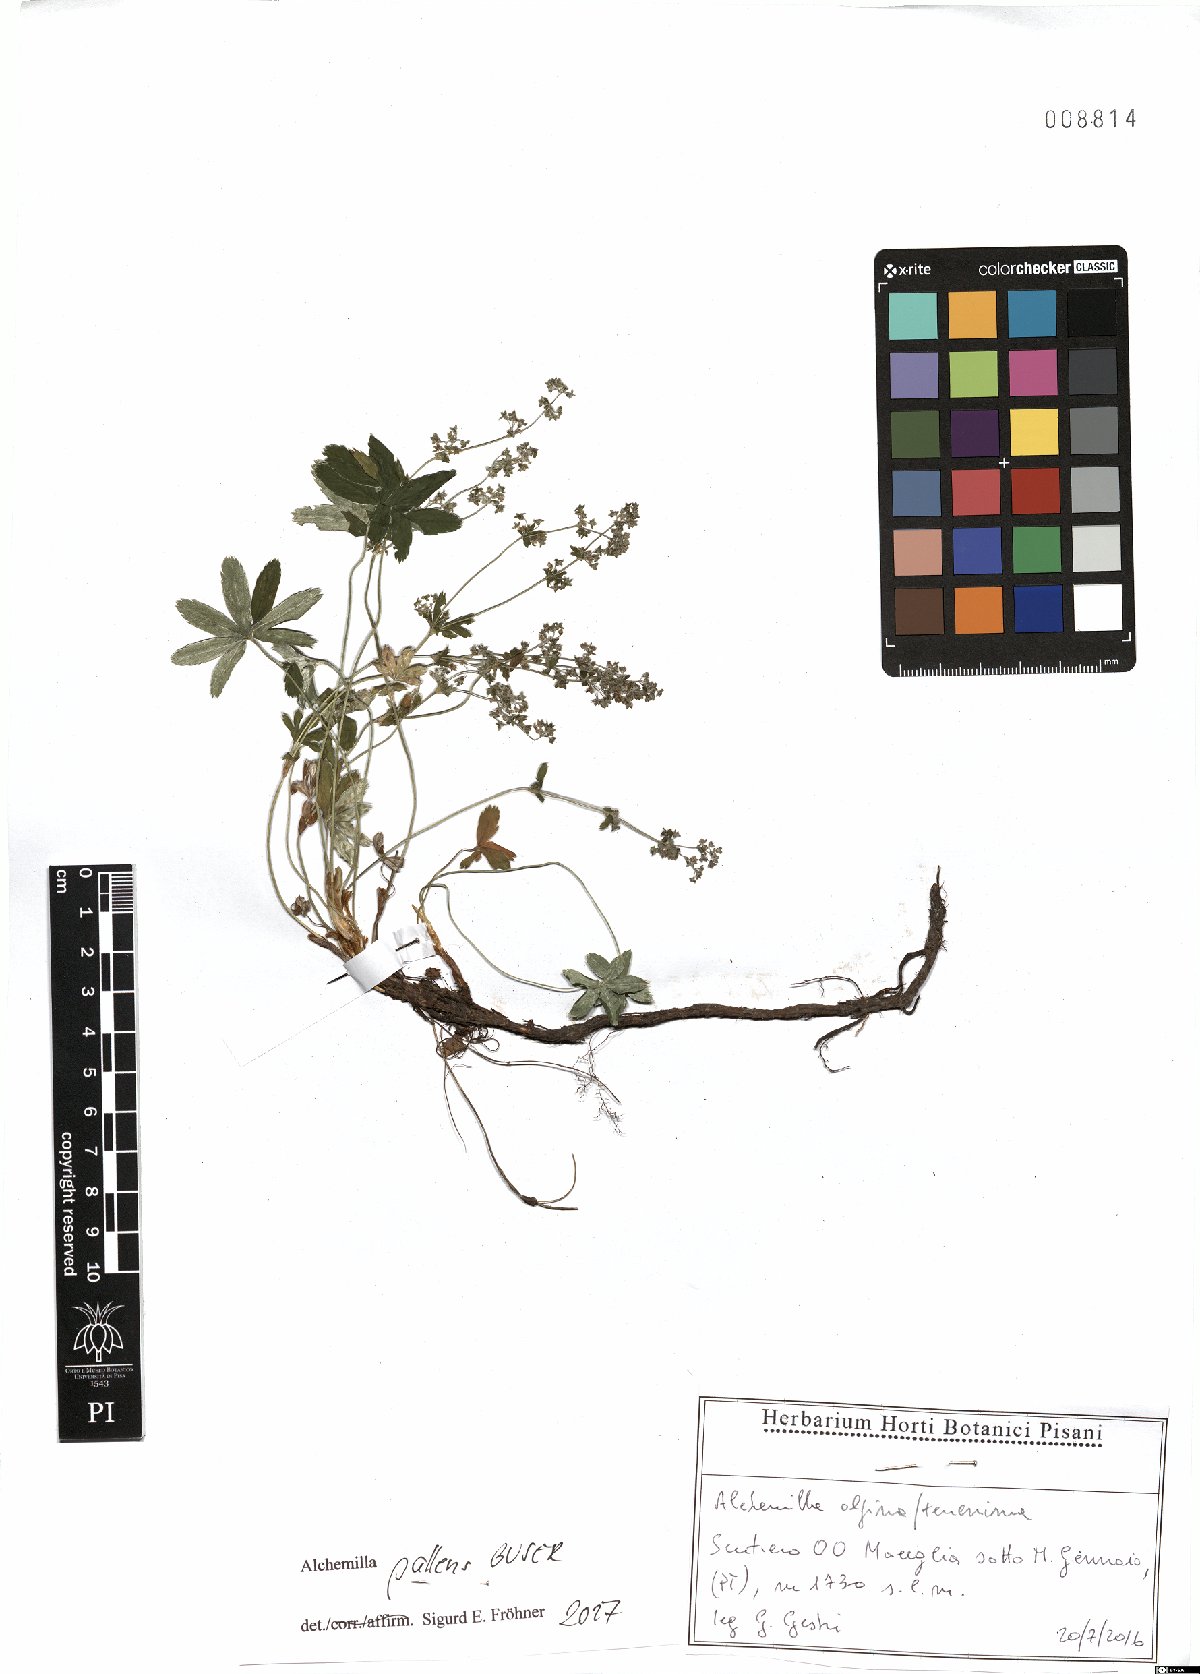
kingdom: Plantae
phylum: Tracheophyta
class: Magnoliopsida
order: Rosales
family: Rosaceae
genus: Alchemilla
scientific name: Alchemilla pallens
